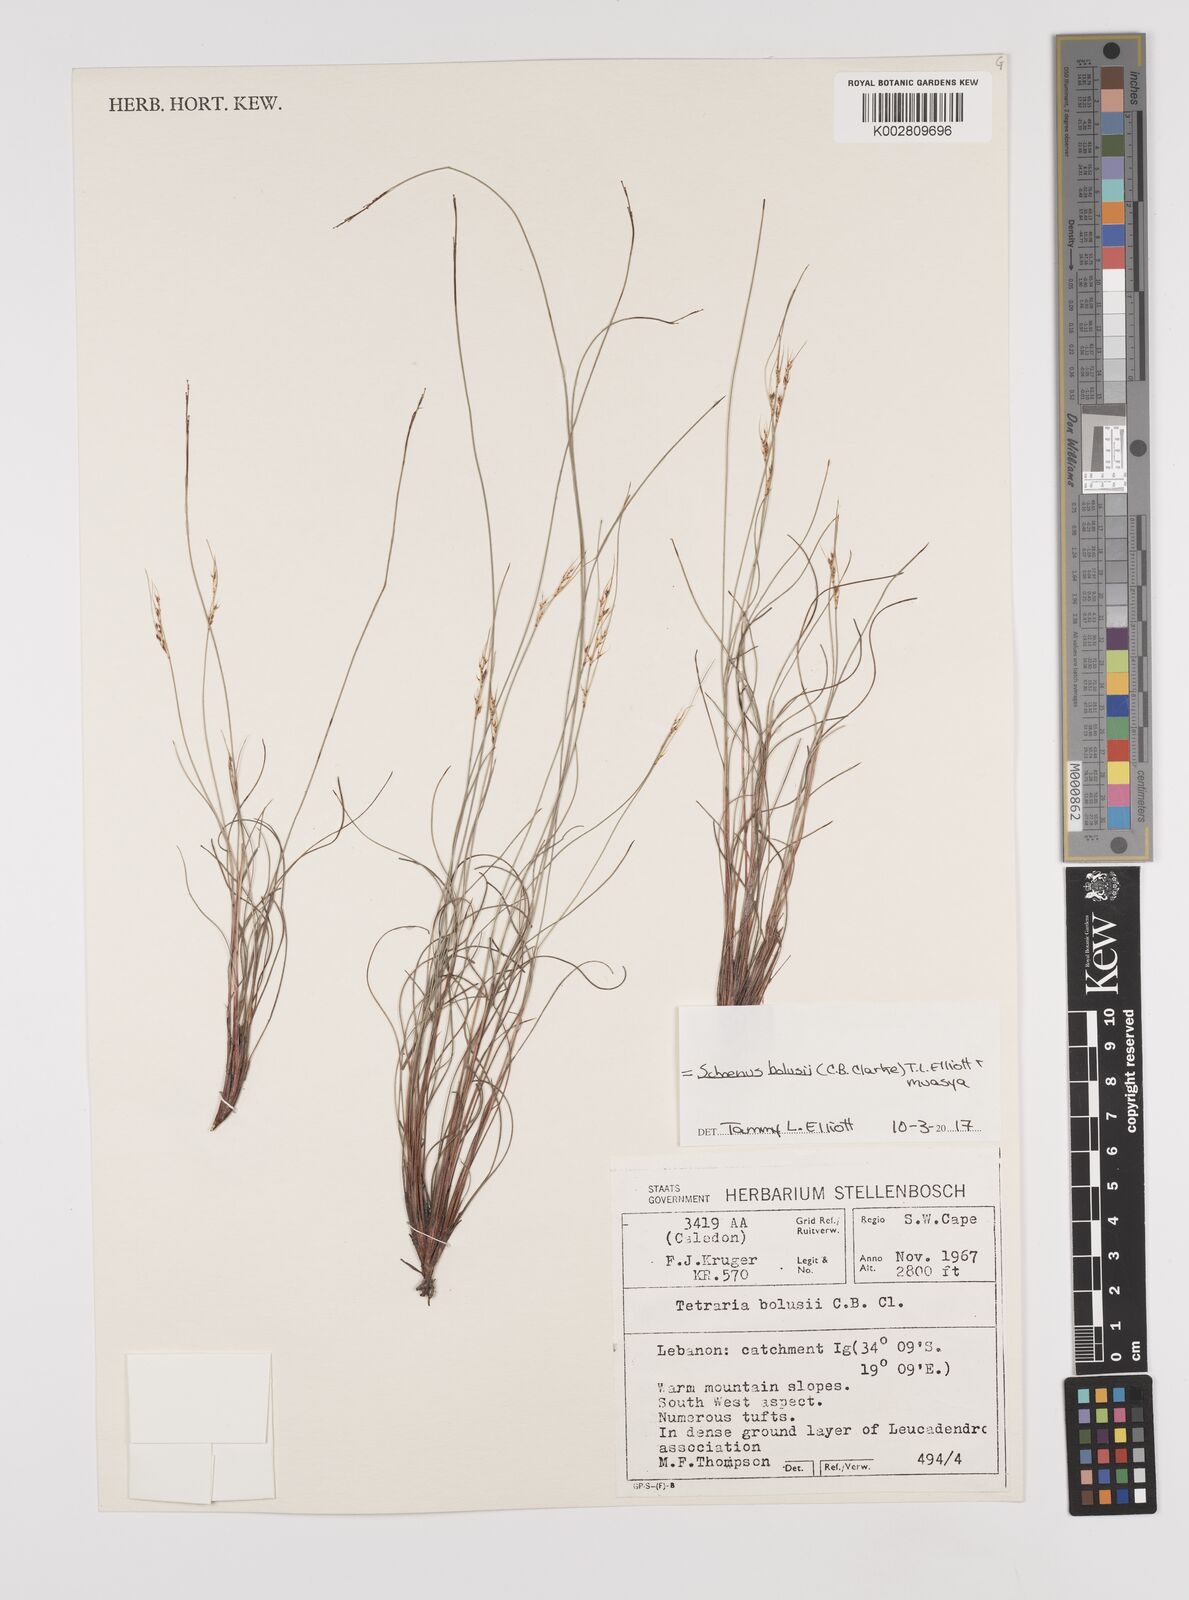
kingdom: Plantae
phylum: Tracheophyta
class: Liliopsida
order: Poales
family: Cyperaceae
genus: Schoenus
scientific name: Schoenus bolusii
